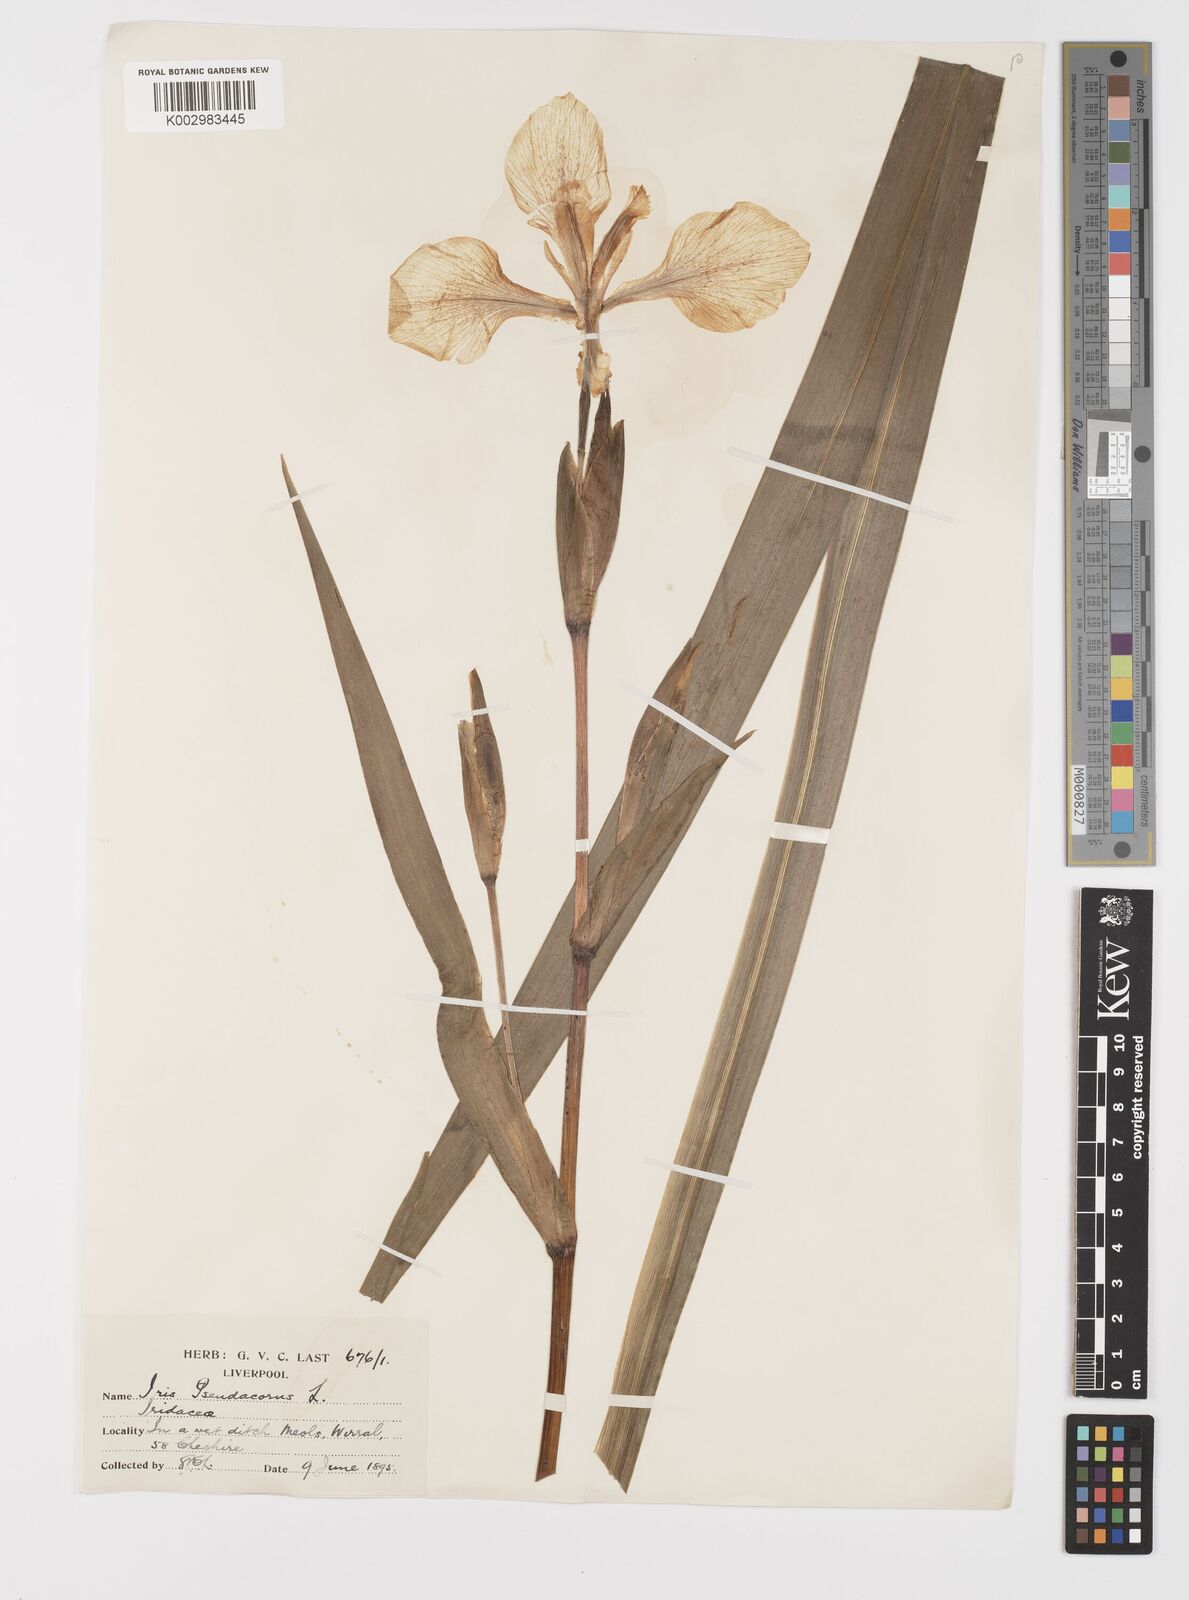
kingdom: Plantae
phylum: Tracheophyta
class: Liliopsida
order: Asparagales
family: Iridaceae
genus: Iris
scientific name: Iris pseudacorus
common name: Yellow flag
